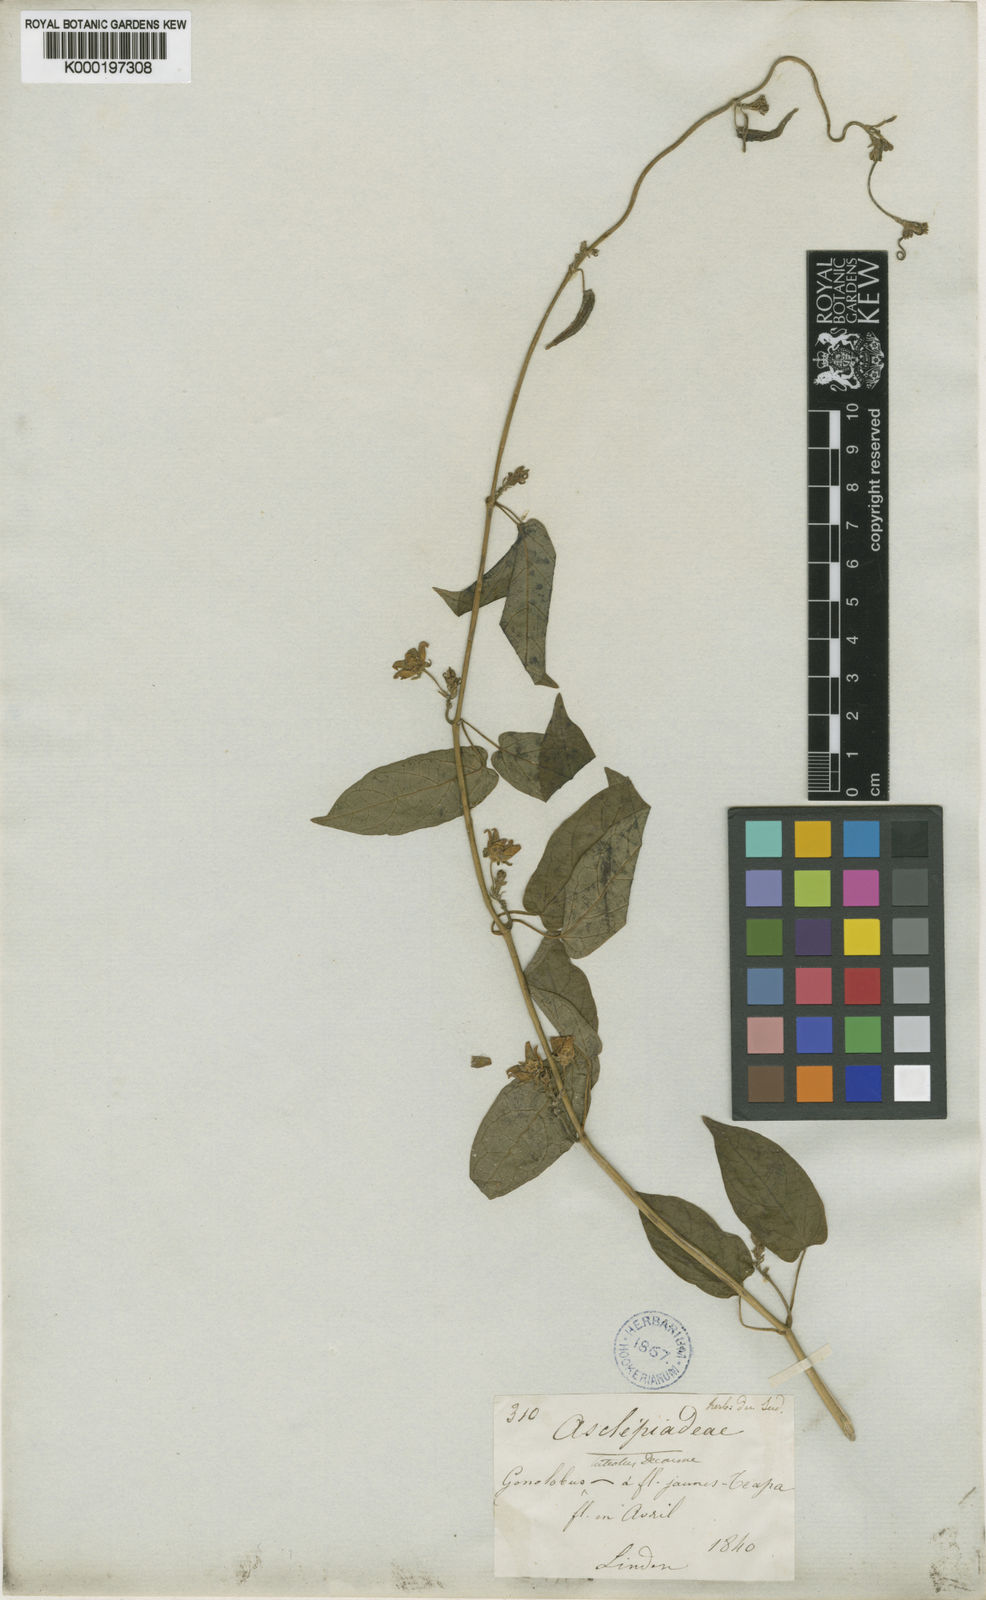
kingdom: Plantae
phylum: Tracheophyta
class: Magnoliopsida
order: Gentianales
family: Apocynaceae
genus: Gonolobus
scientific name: Gonolobus fraternus
